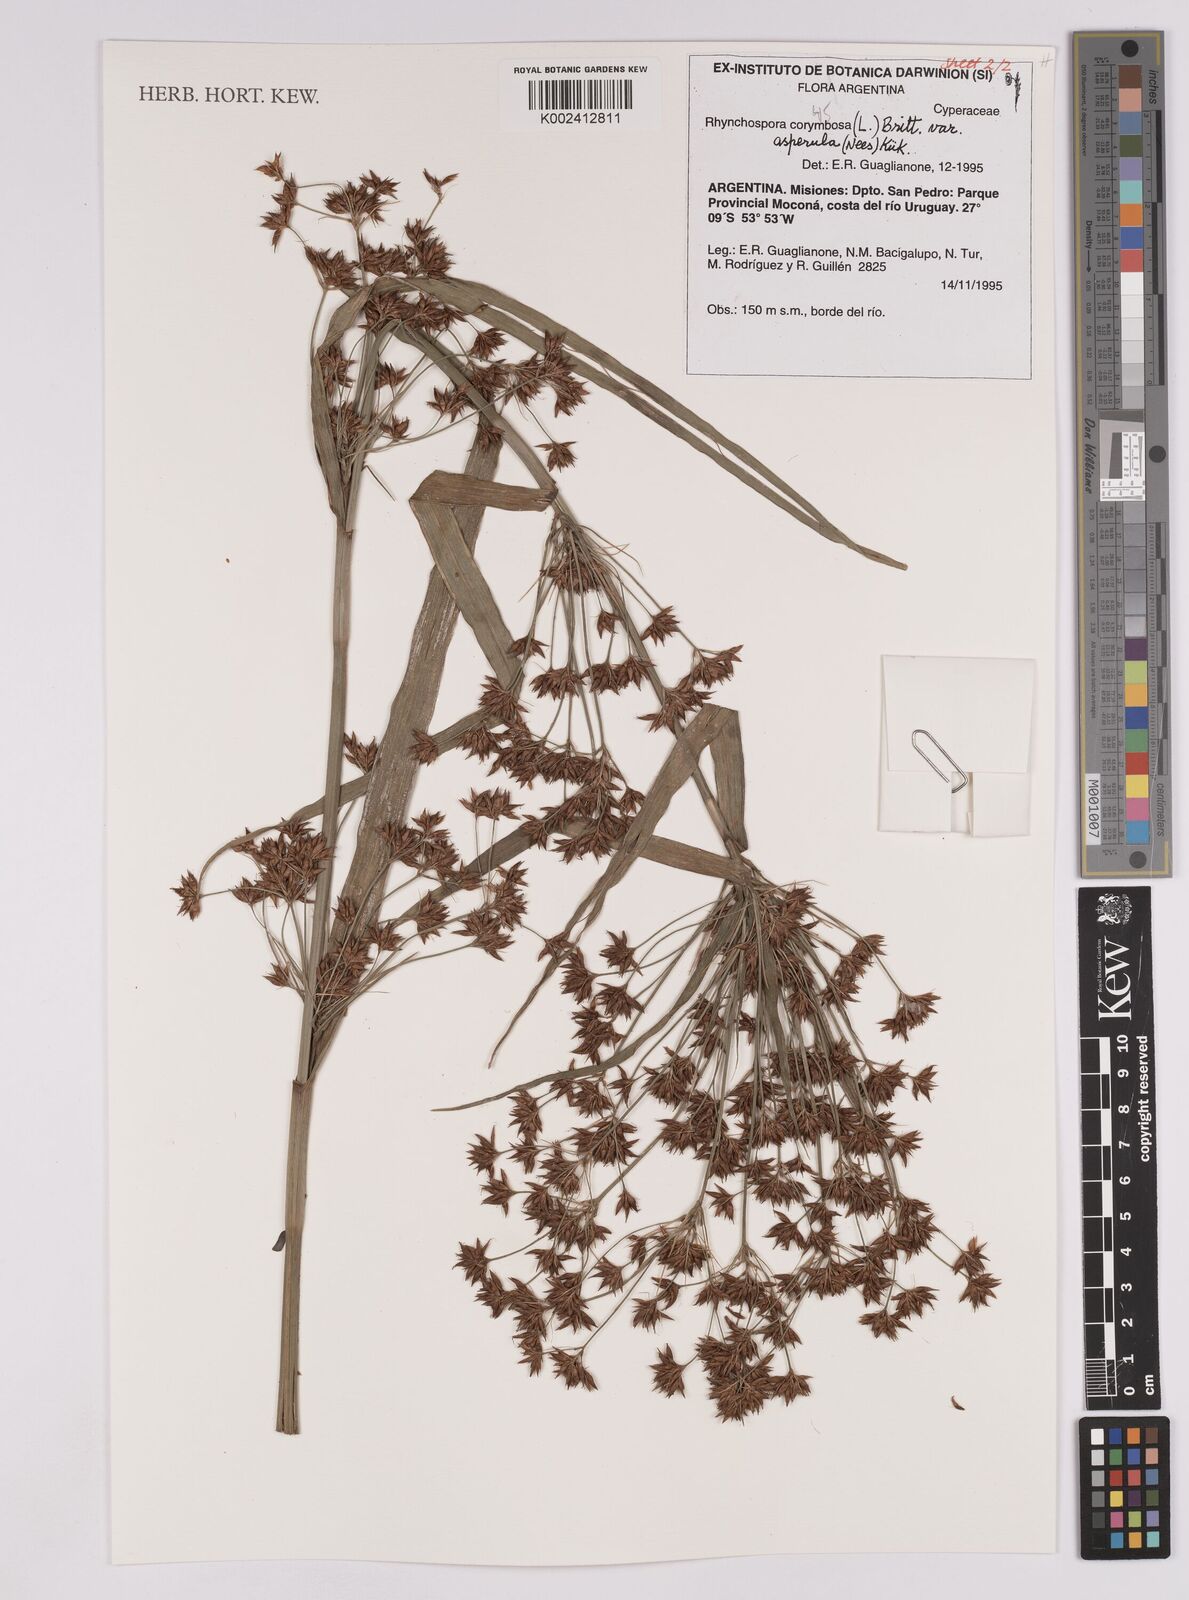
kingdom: Plantae
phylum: Tracheophyta
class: Liliopsida
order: Poales
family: Cyperaceae
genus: Rhynchospora
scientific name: Rhynchospora corymbosa
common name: Golden beak sedge
